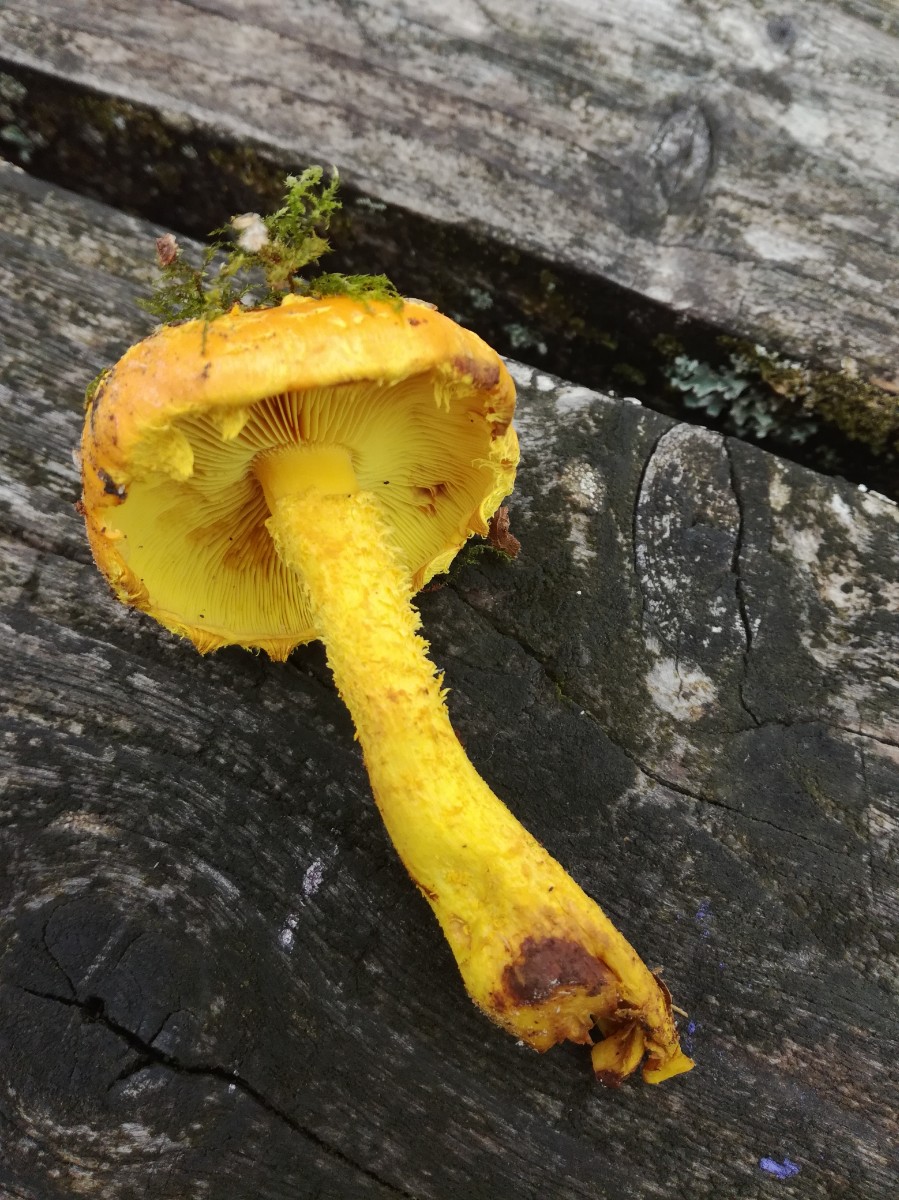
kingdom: Fungi
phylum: Basidiomycota
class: Agaricomycetes
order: Agaricales
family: Strophariaceae
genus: Pholiota
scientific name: Pholiota flammans
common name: flamme-skælhat
